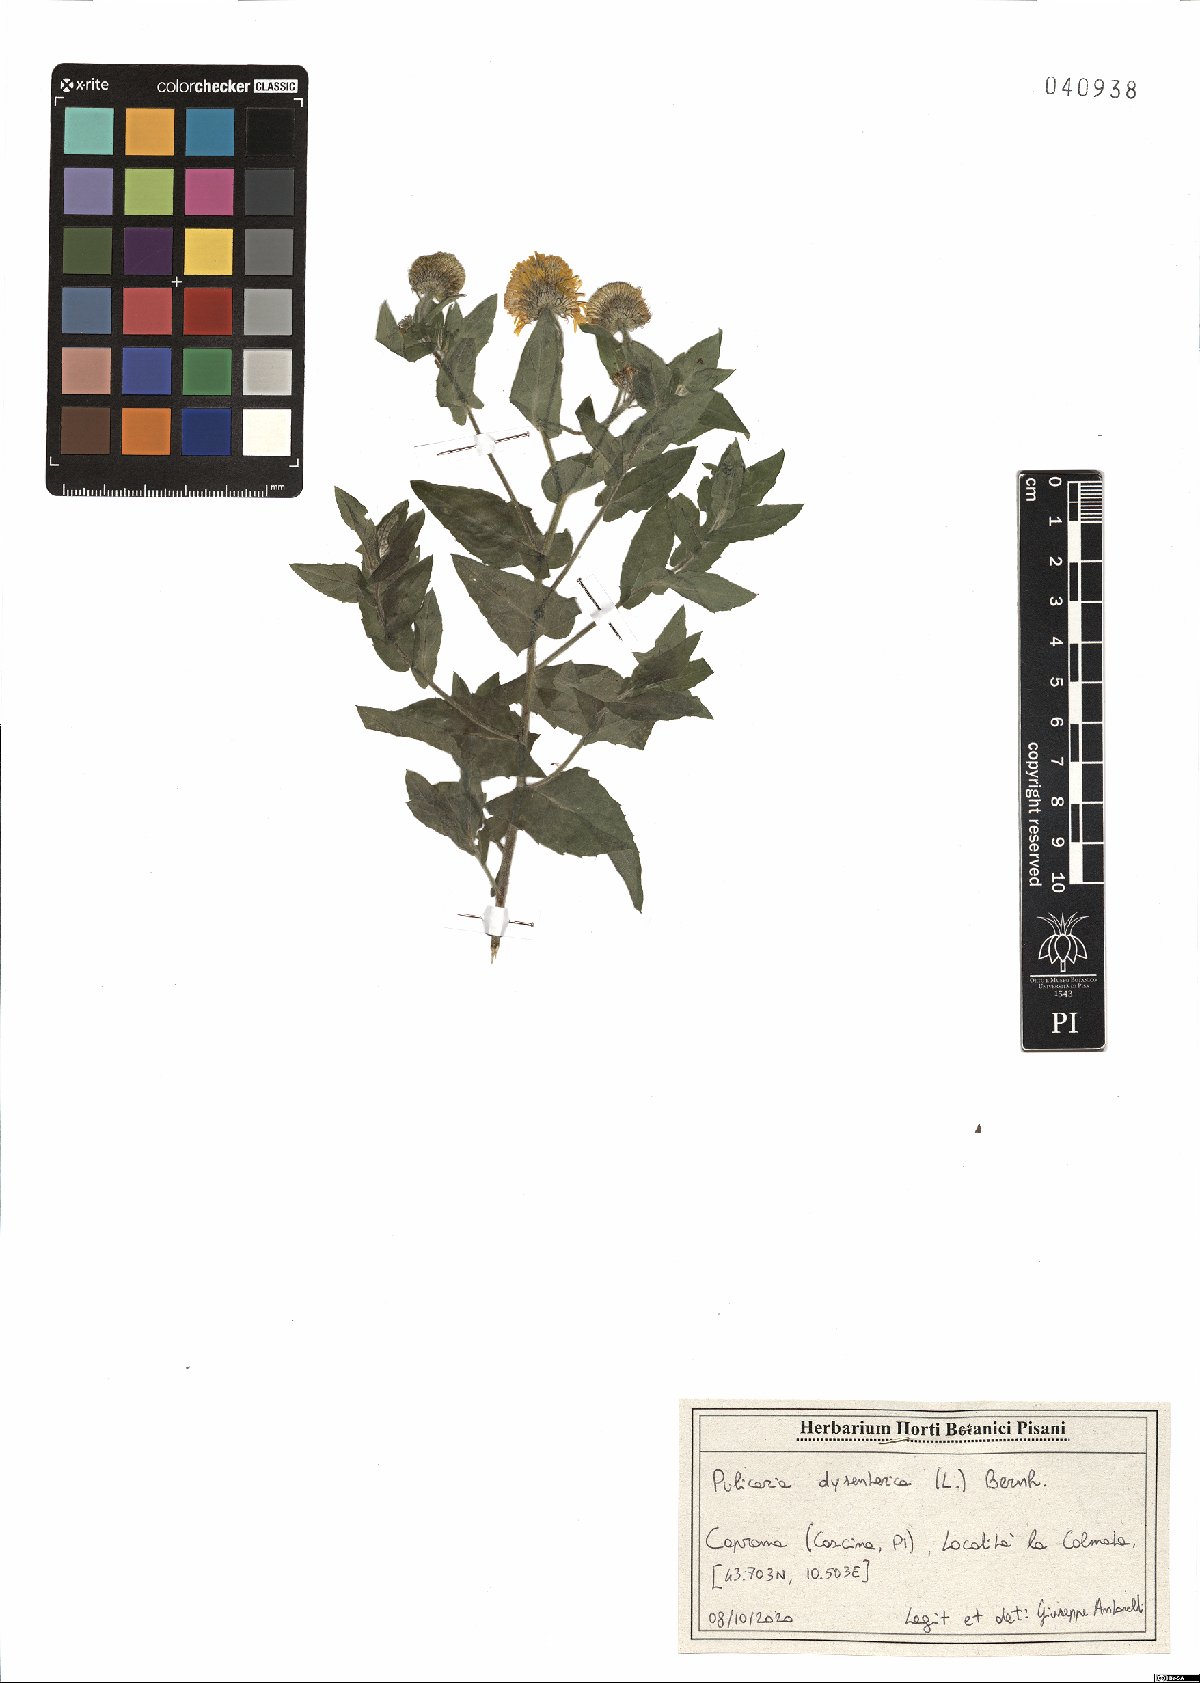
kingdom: Plantae
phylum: Tracheophyta
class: Magnoliopsida
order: Asterales
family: Asteraceae
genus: Pulicaria
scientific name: Pulicaria dysenterica
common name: Common fleabane
